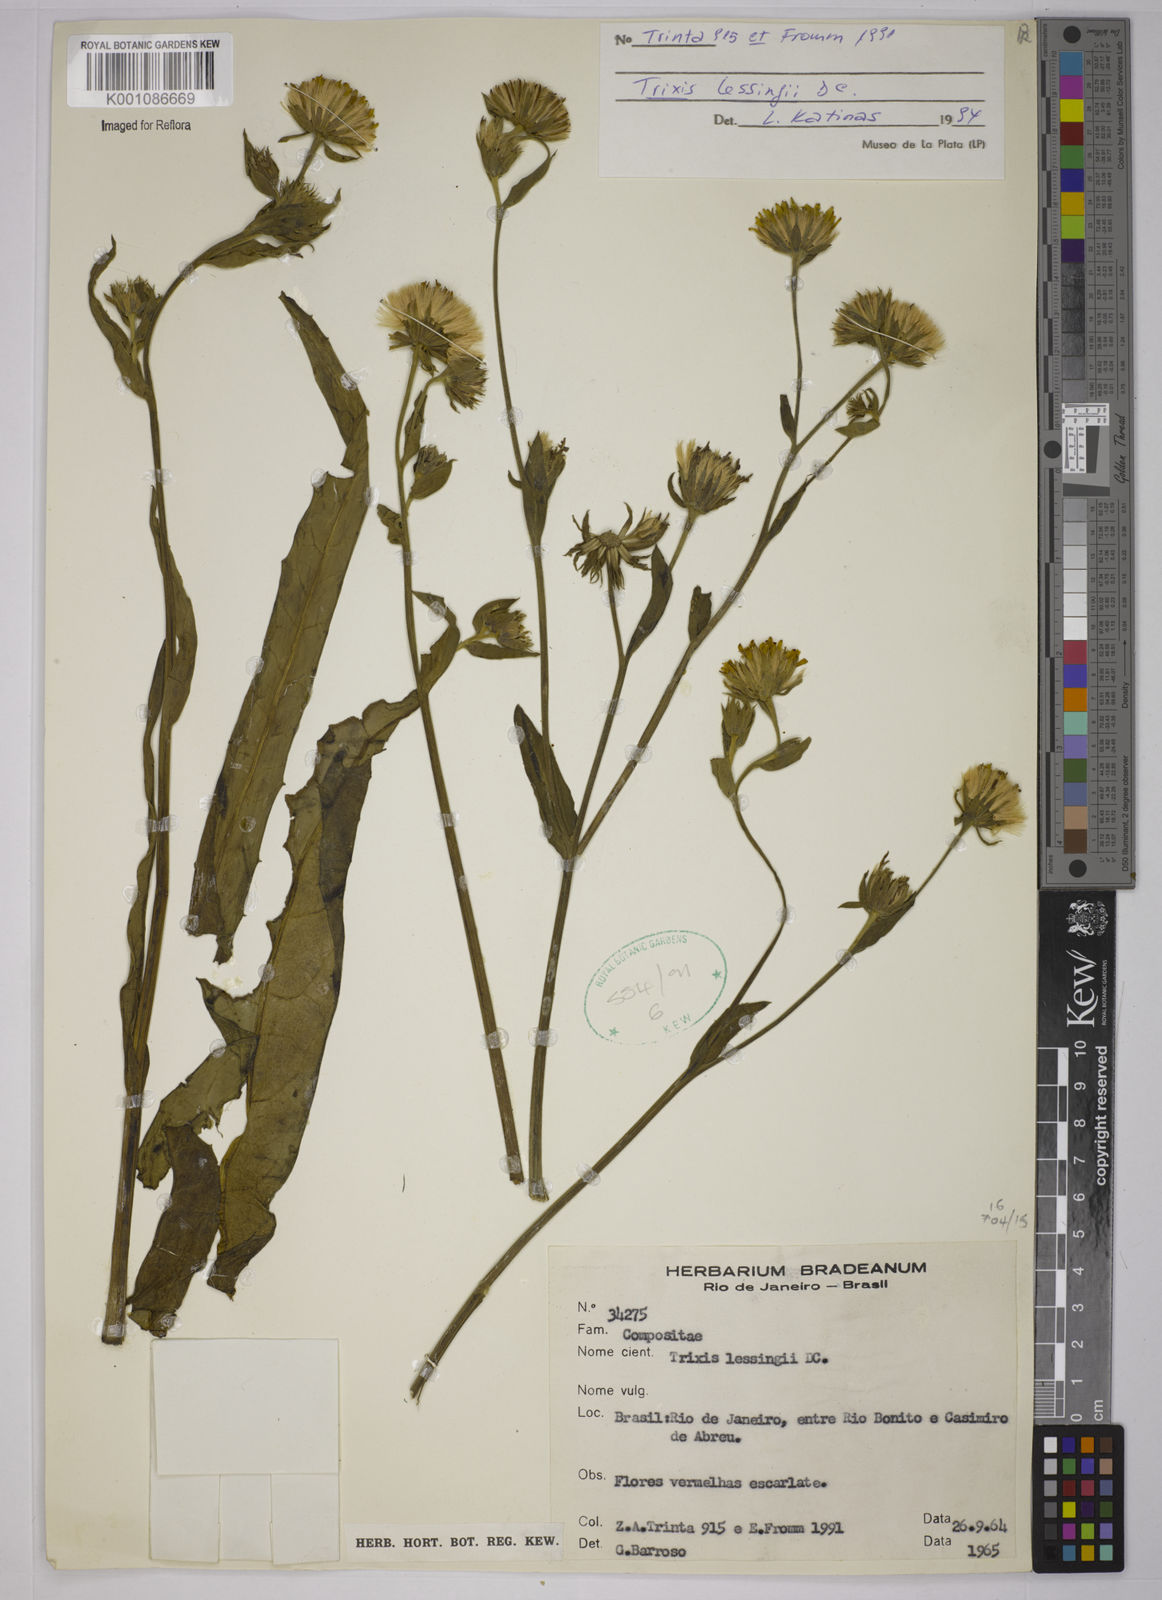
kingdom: Plantae
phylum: Tracheophyta
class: Magnoliopsida
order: Asterales
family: Asteraceae
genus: Trixis
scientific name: Trixis lessingii
